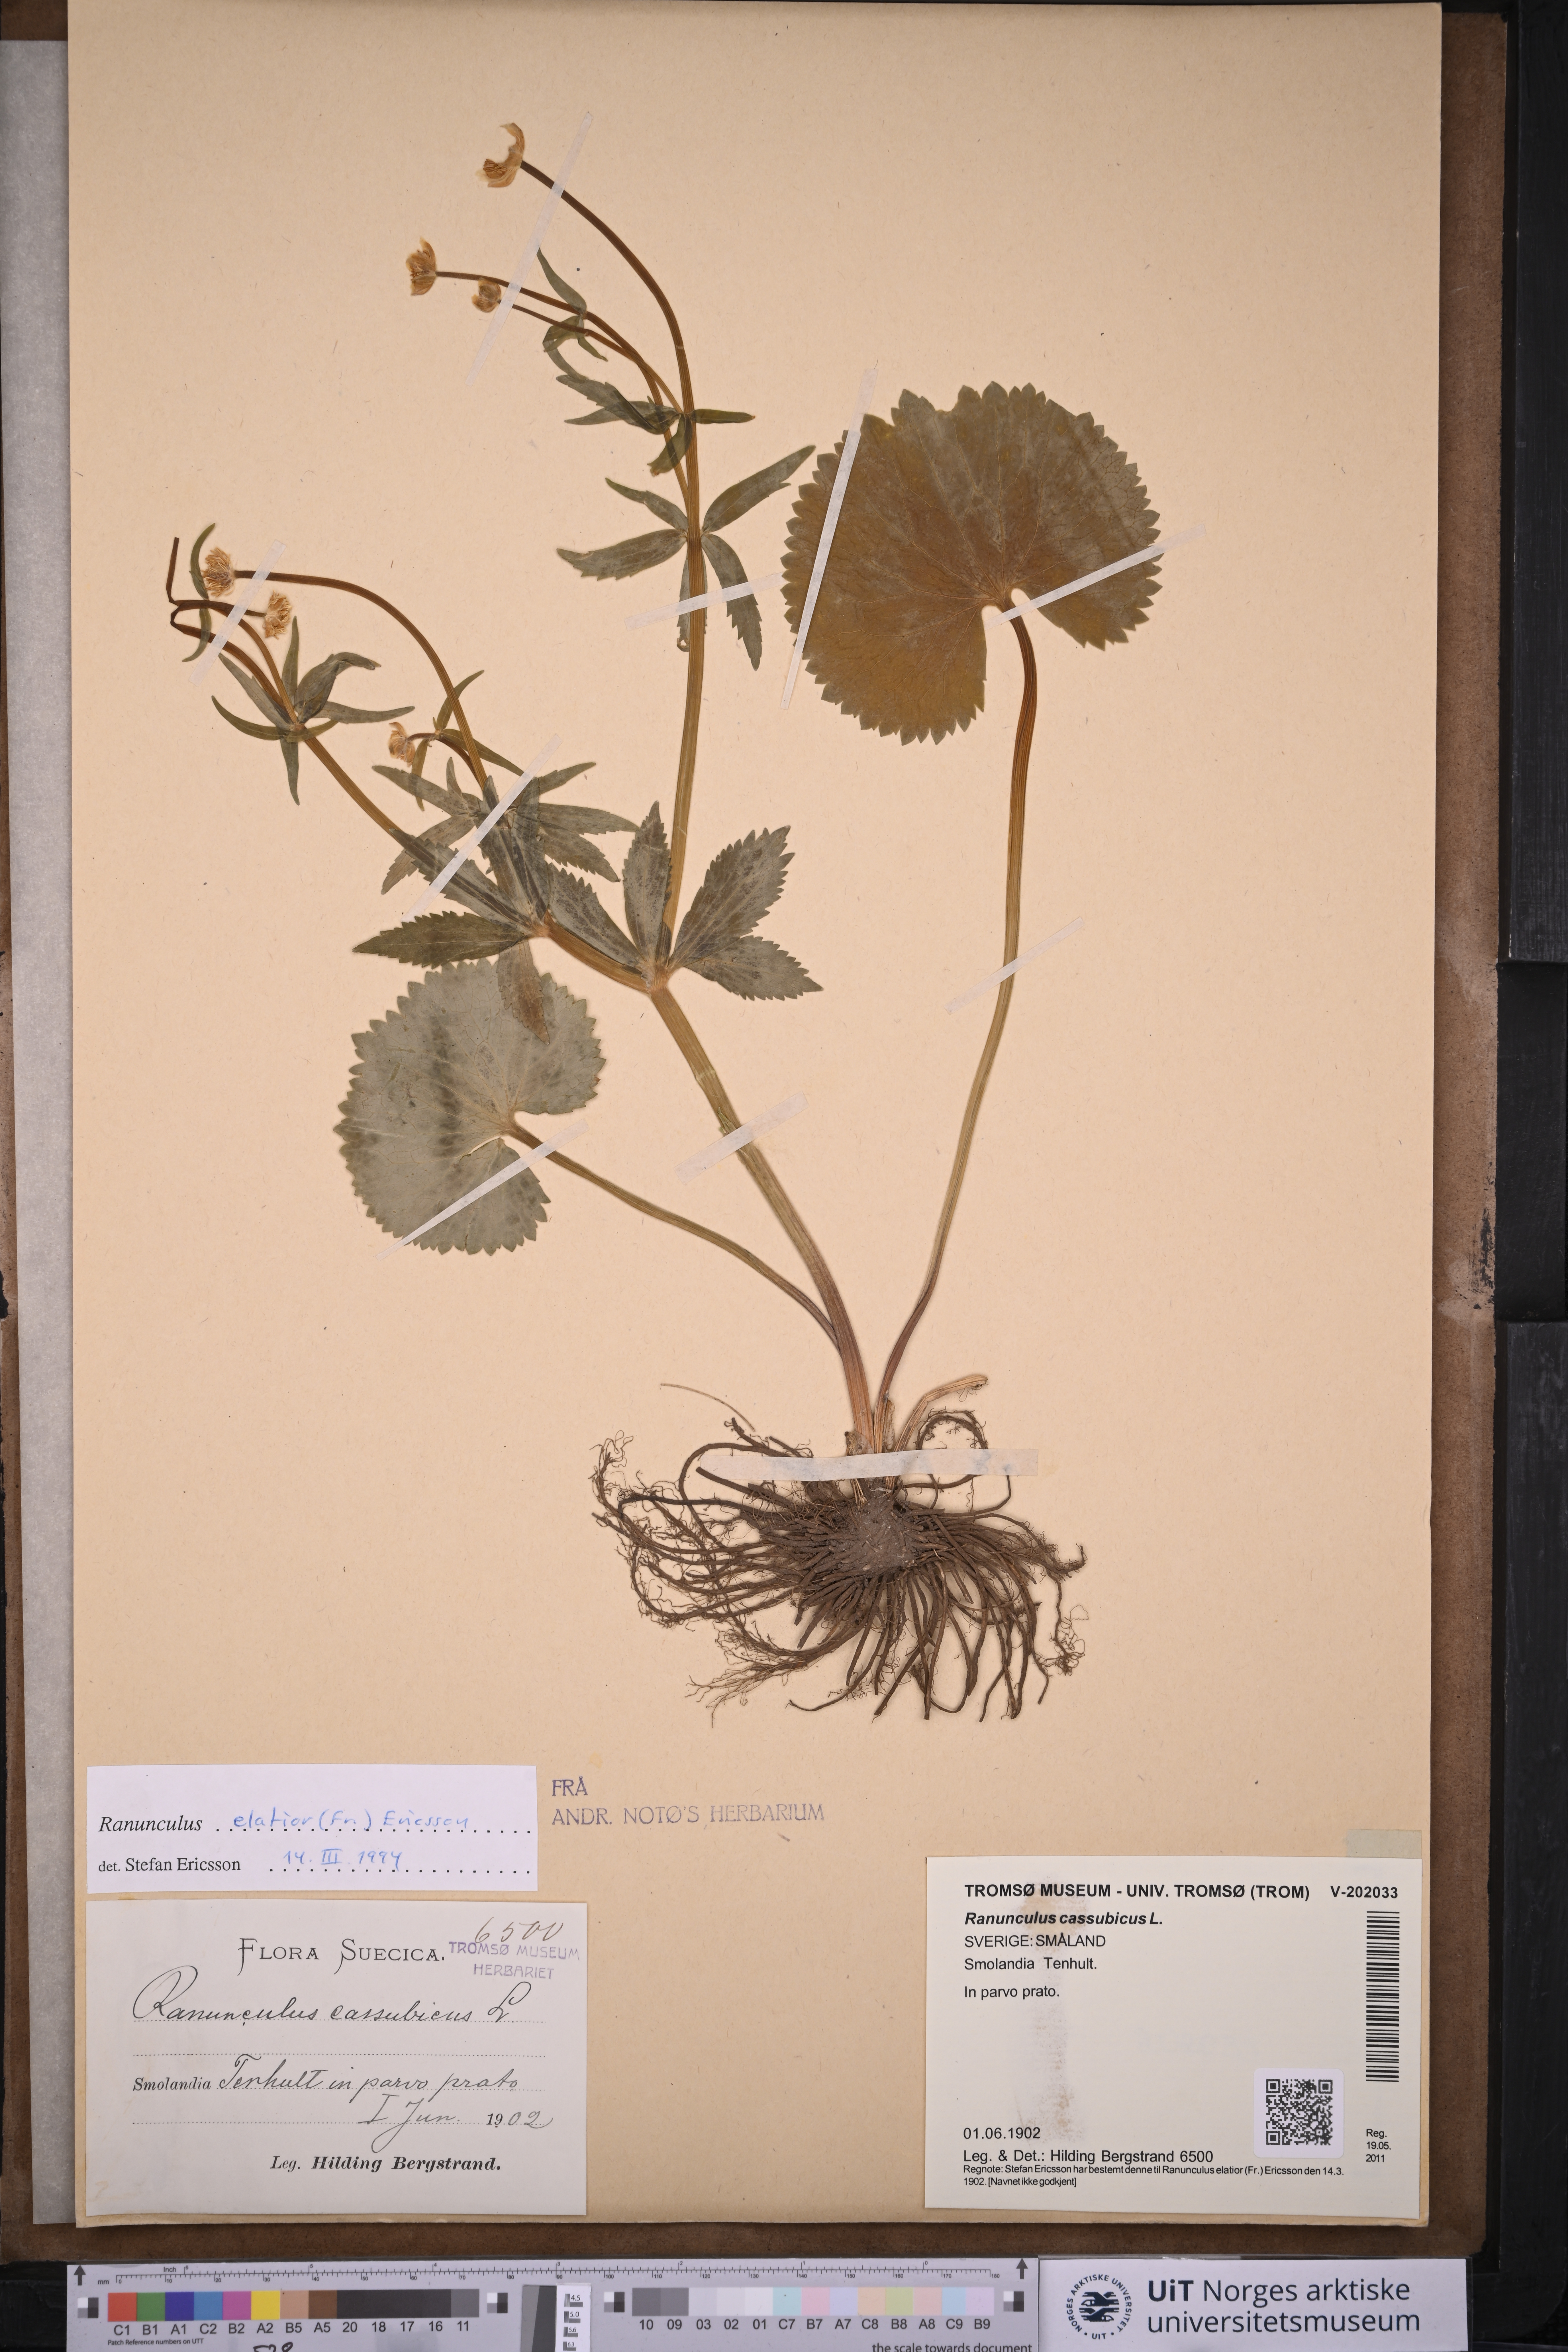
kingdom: Plantae
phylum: Tracheophyta
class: Magnoliopsida
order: Ranunculales
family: Ranunculaceae
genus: Ranunculus
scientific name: Ranunculus cassubicus
